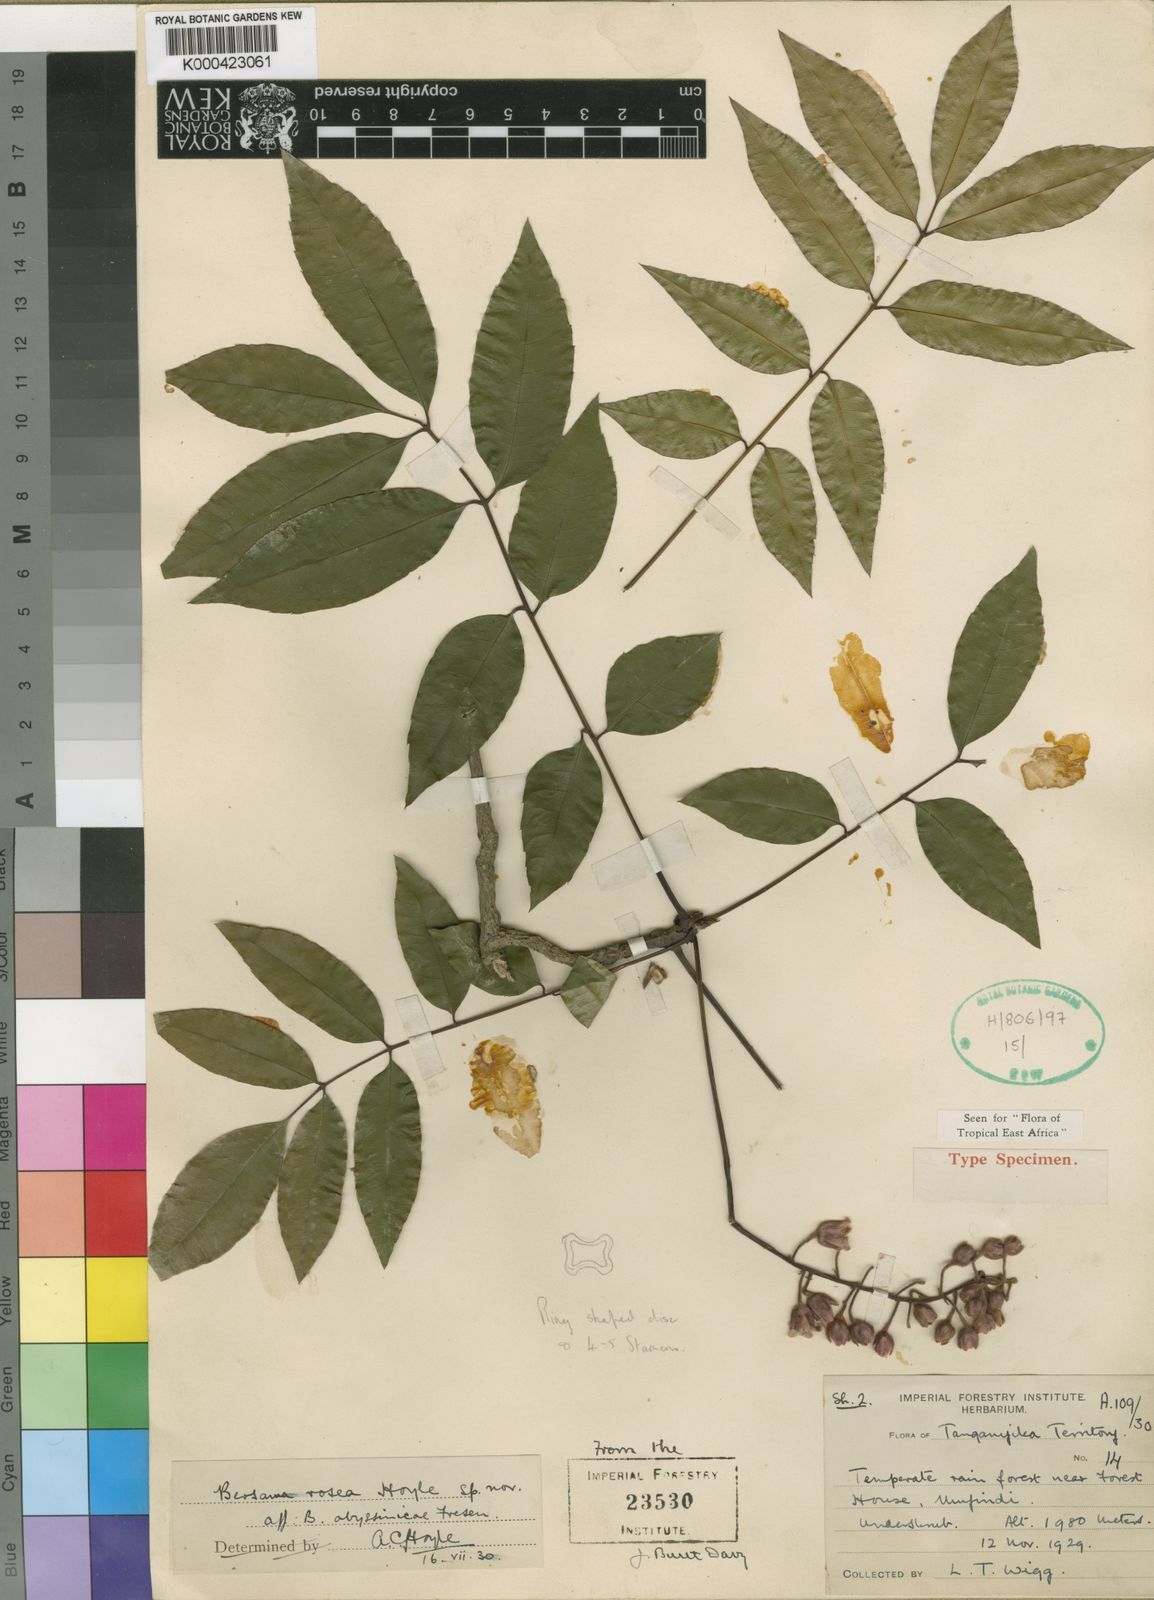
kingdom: Plantae
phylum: Tracheophyta
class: Magnoliopsida
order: Geraniales
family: Melianthaceae
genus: Bersama
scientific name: Bersama abyssinica
